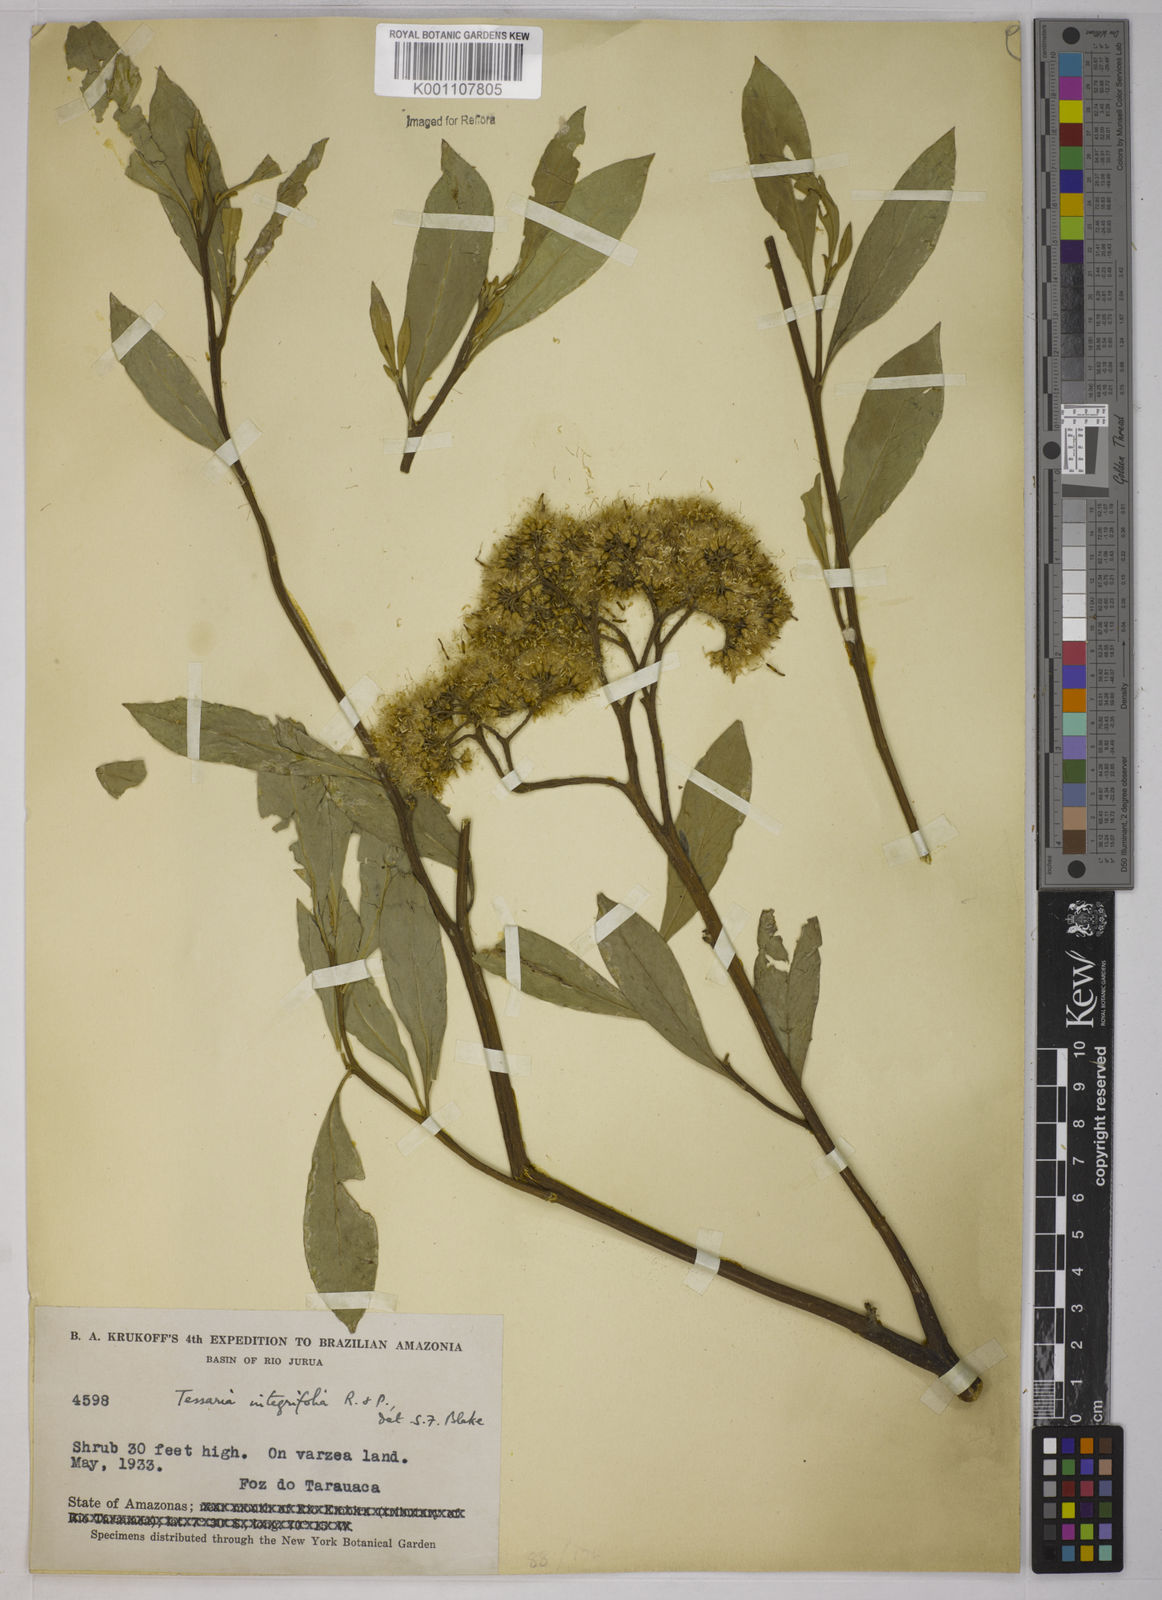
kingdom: Plantae
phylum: Tracheophyta
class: Magnoliopsida
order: Asterales
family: Asteraceae
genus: Tessaria
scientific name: Tessaria integrifolia
